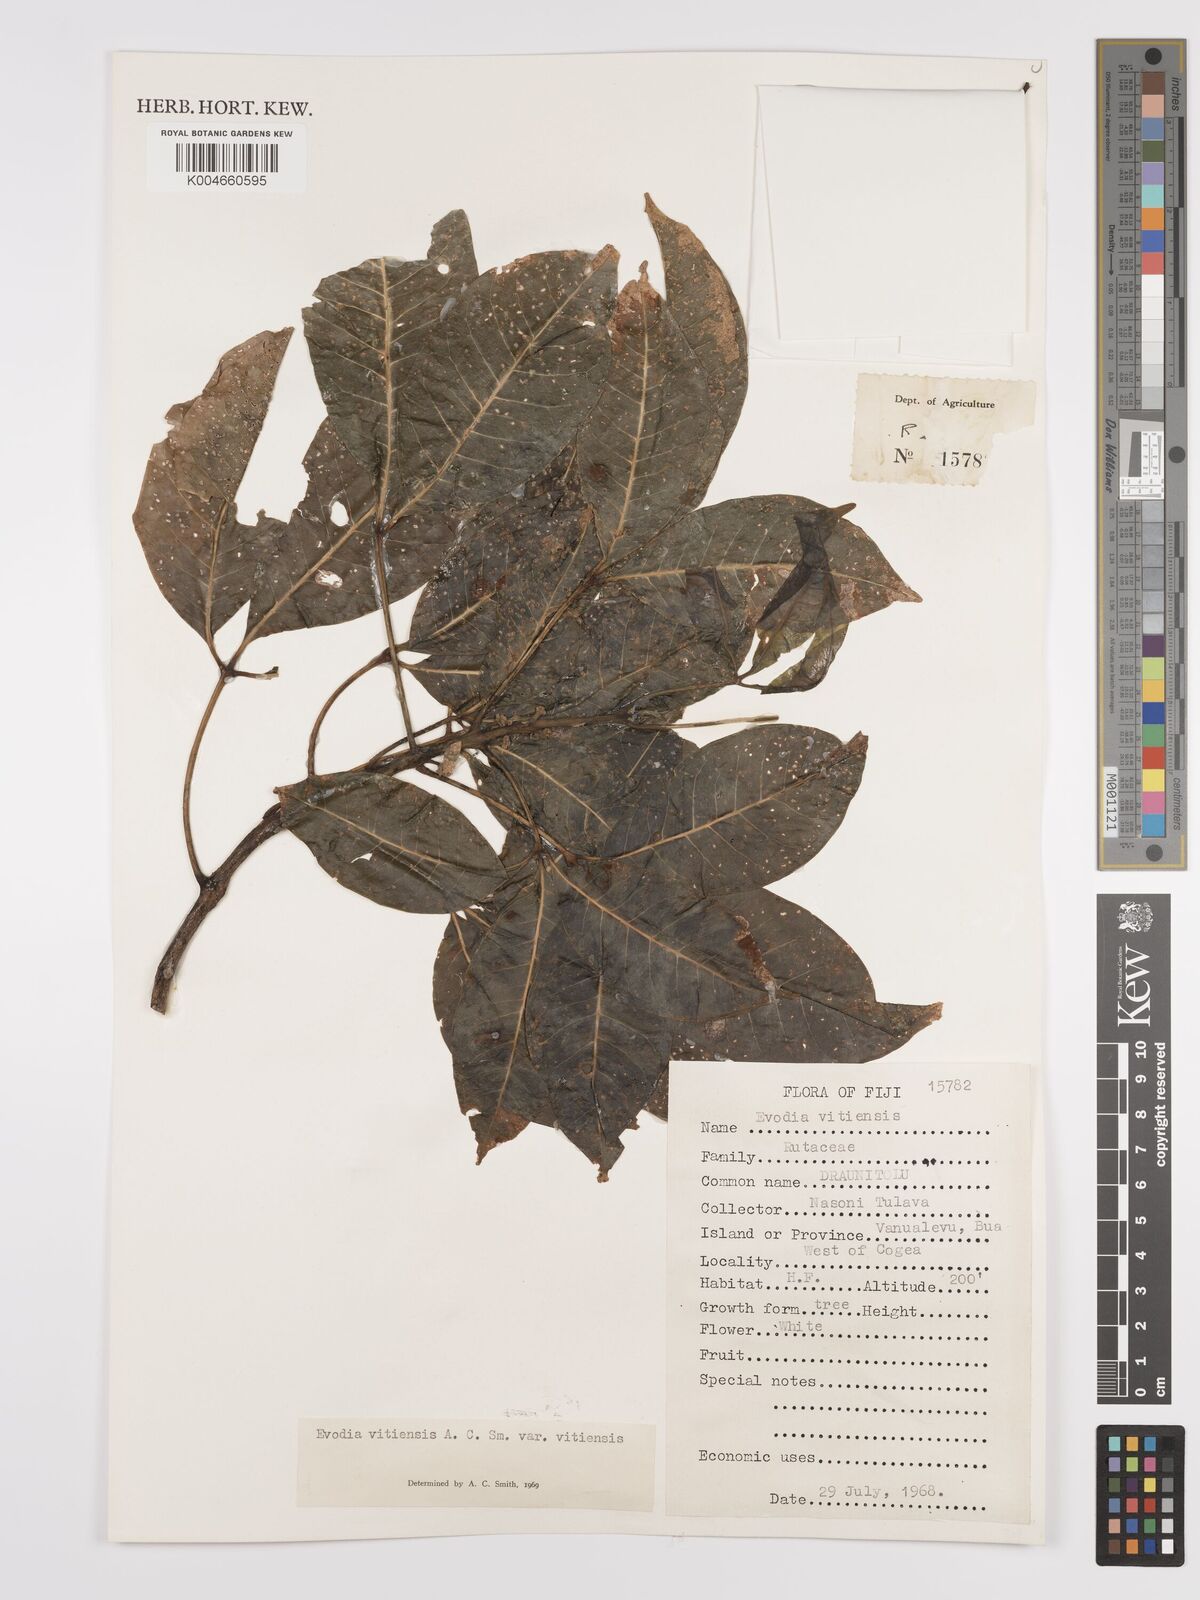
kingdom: Plantae
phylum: Tracheophyta
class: Magnoliopsida
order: Sapindales
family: Rutaceae
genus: Melicope
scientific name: Melicope cucullata
